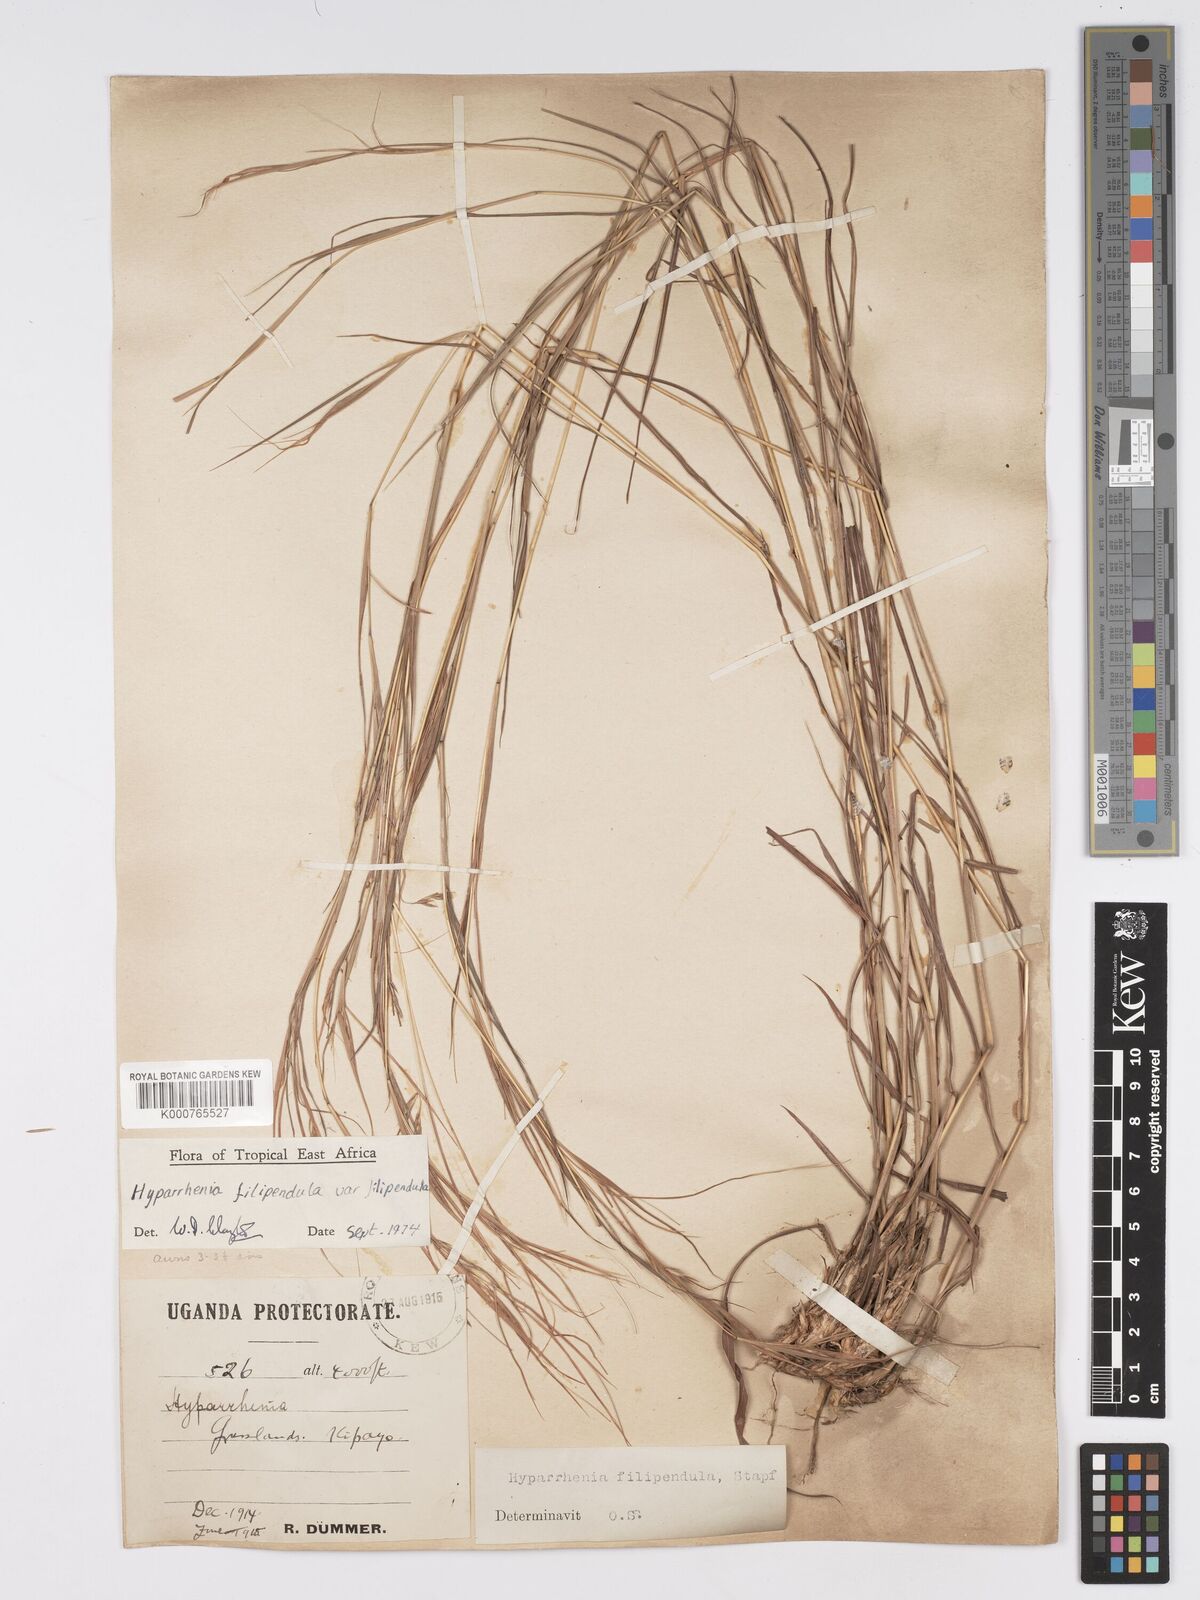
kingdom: Plantae
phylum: Tracheophyta
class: Liliopsida
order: Poales
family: Poaceae
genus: Hyparrhenia
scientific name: Hyparrhenia filipendula
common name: Tambookie grass
